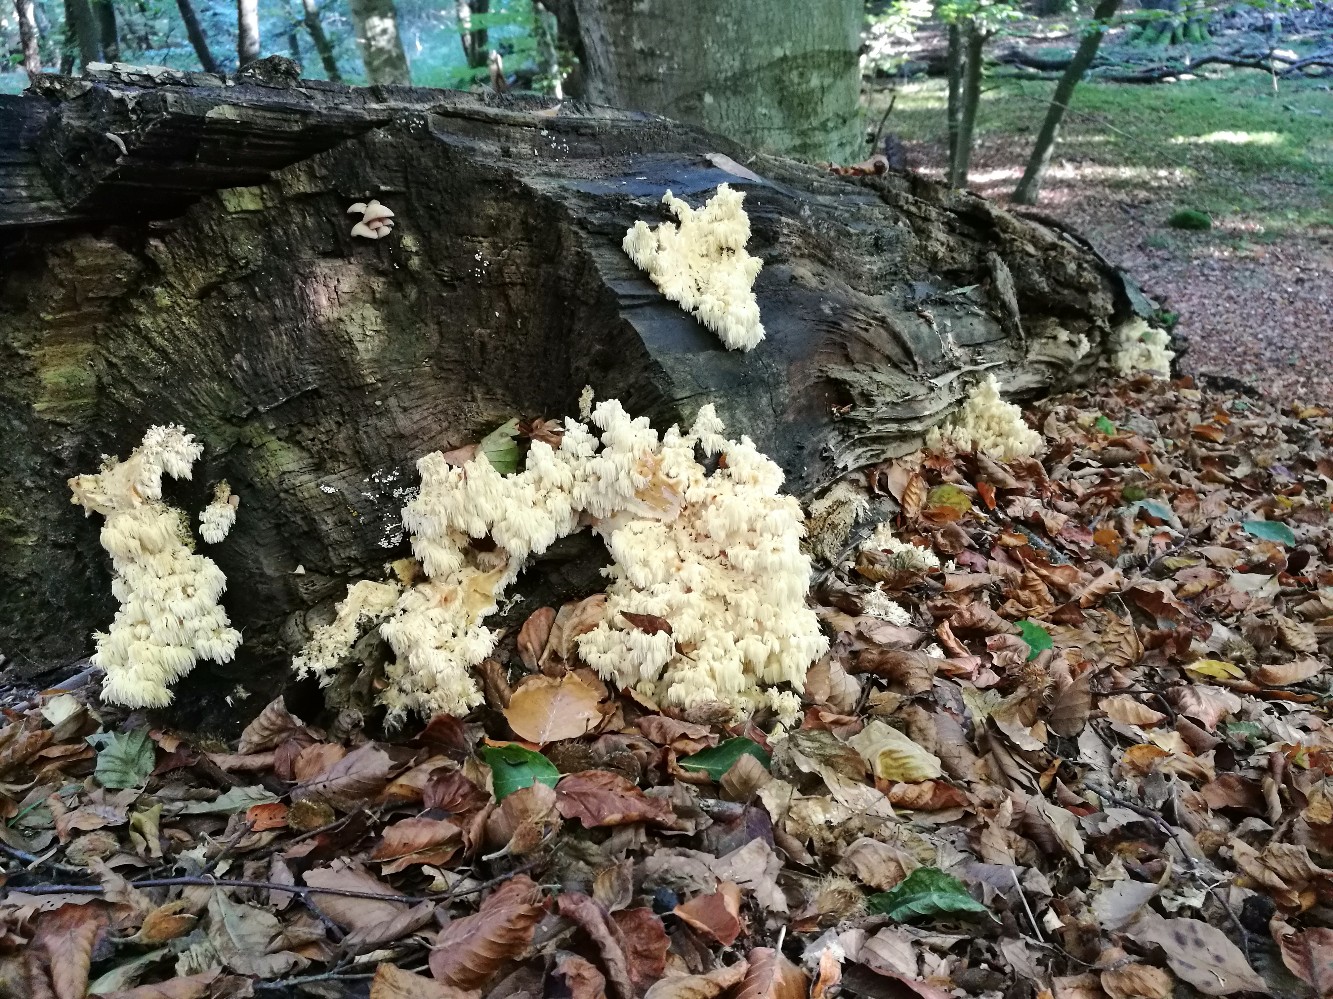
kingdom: Fungi
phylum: Basidiomycota
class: Agaricomycetes
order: Russulales
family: Hericiaceae
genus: Hericium
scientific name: Hericium coralloides
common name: koralpigsvamp
